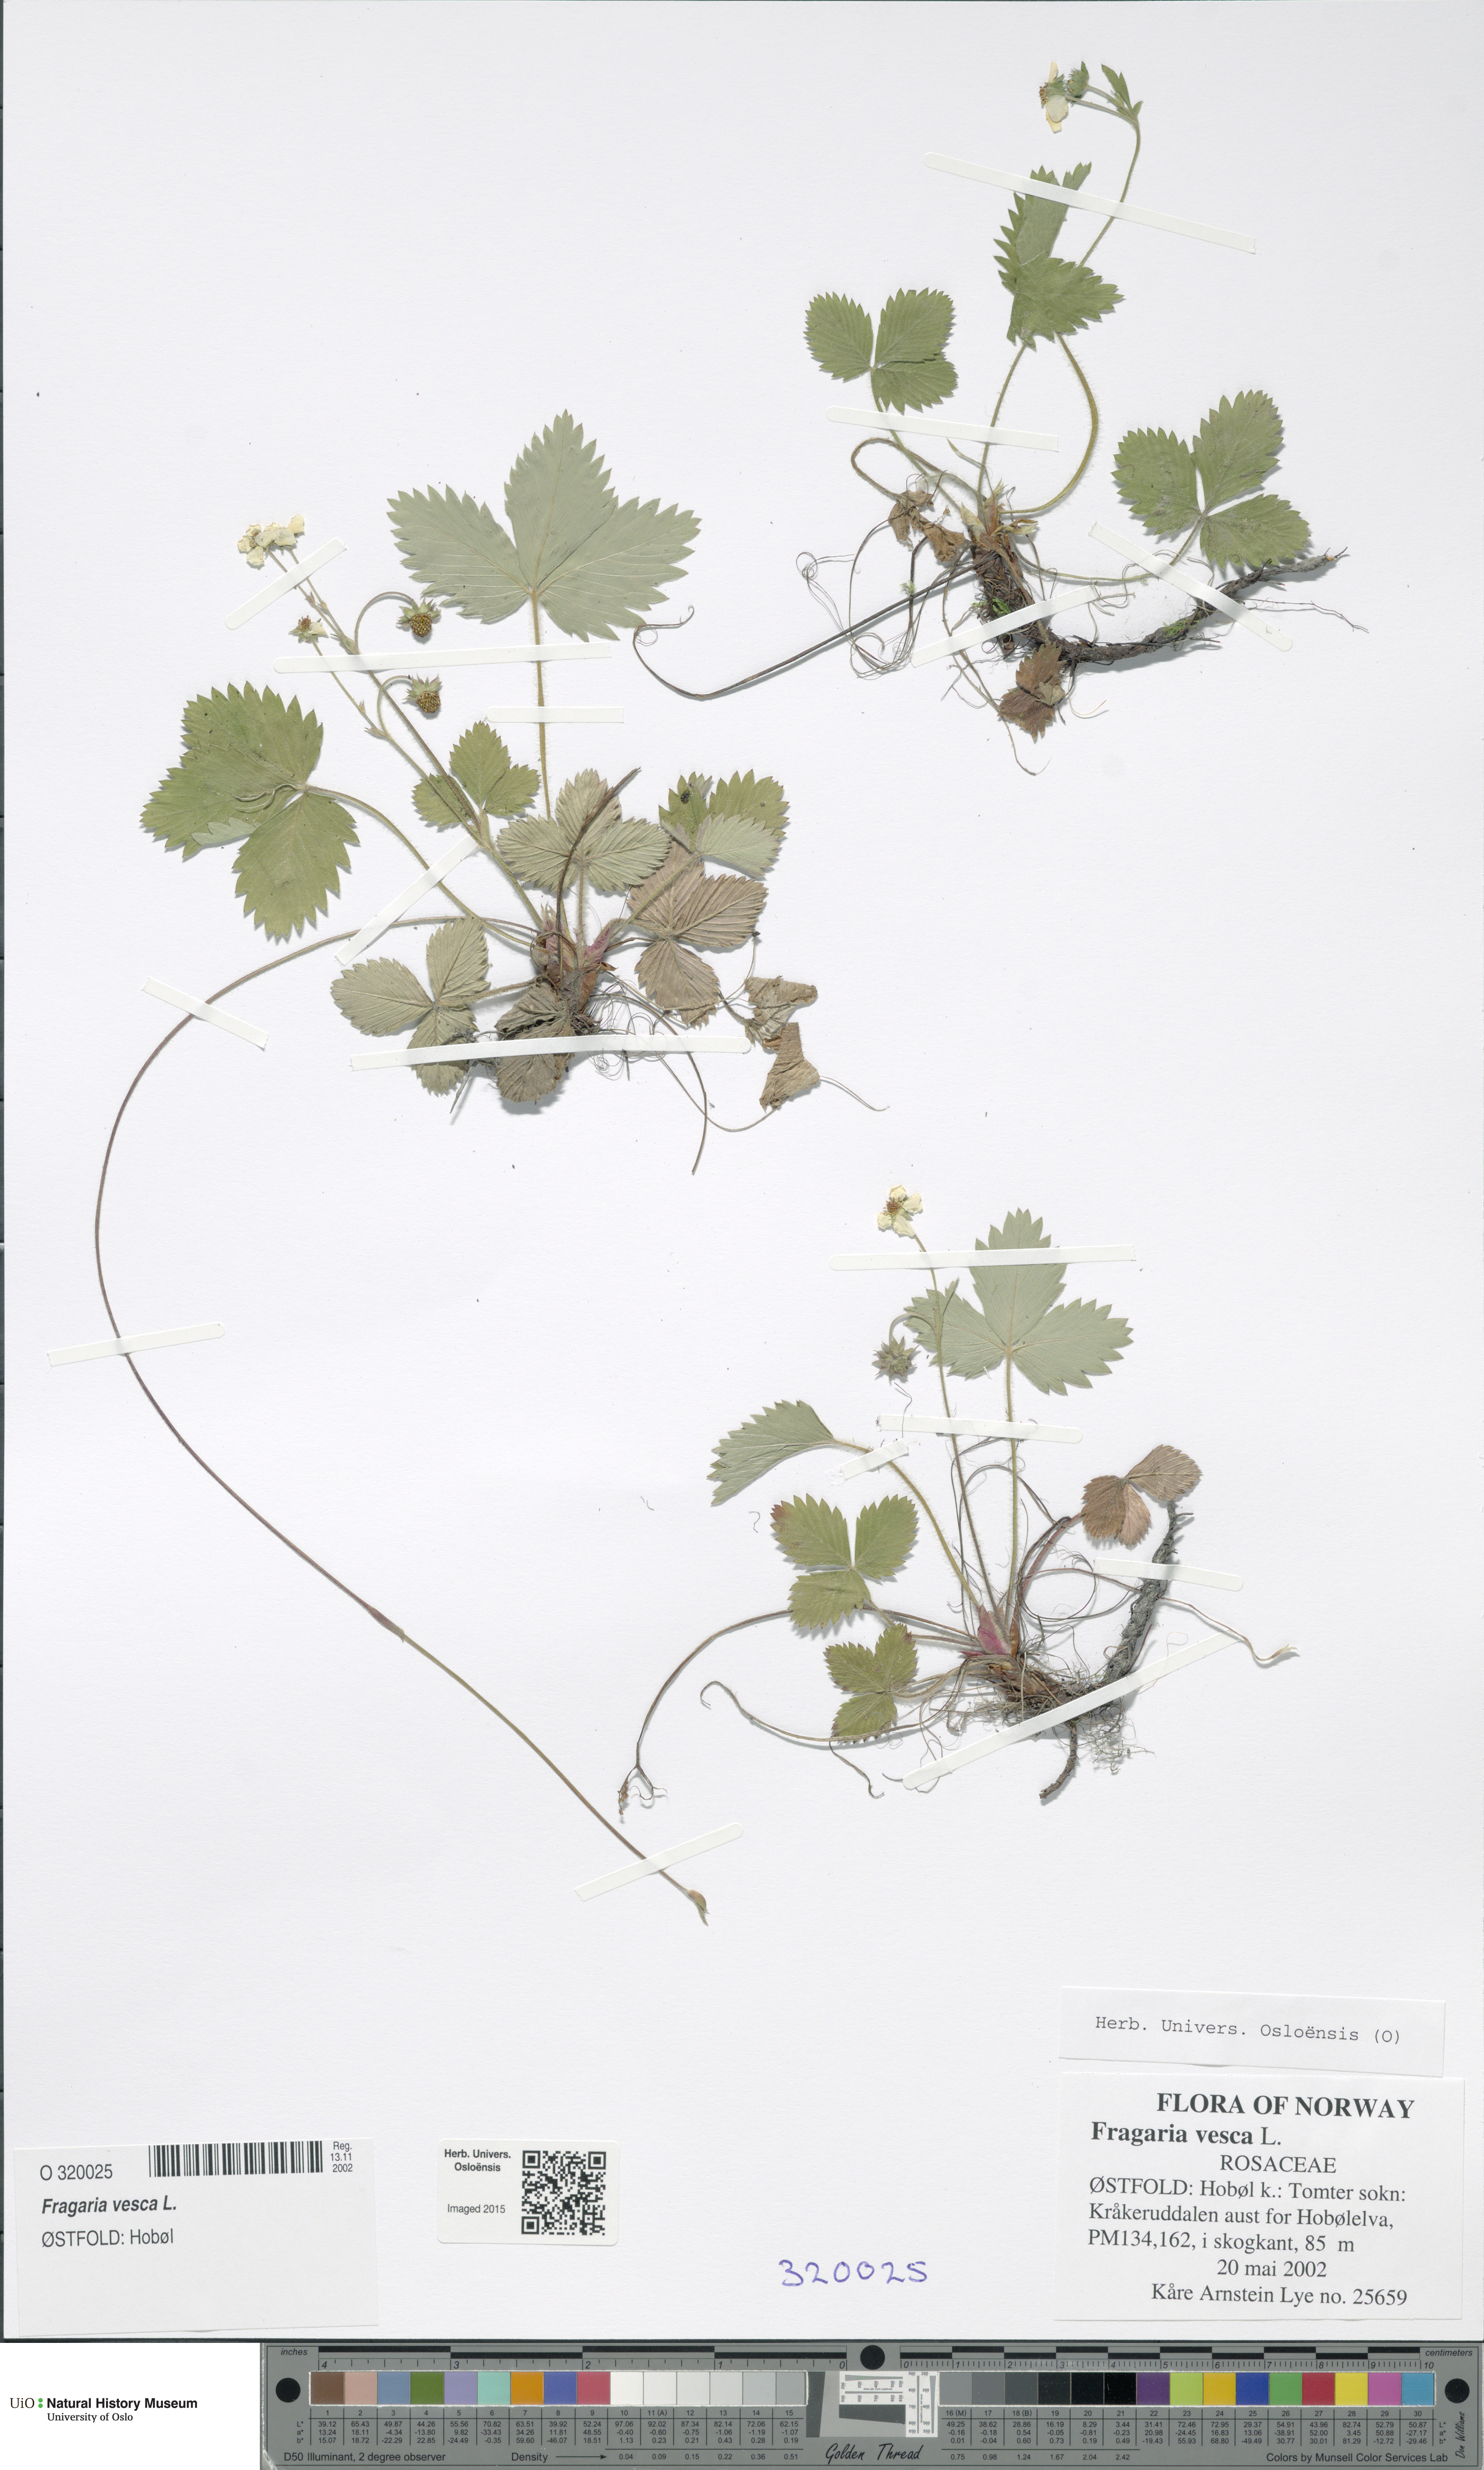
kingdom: Plantae
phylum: Tracheophyta
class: Magnoliopsida
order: Rosales
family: Rosaceae
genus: Fragaria
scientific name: Fragaria vesca
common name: Wild strawberry
